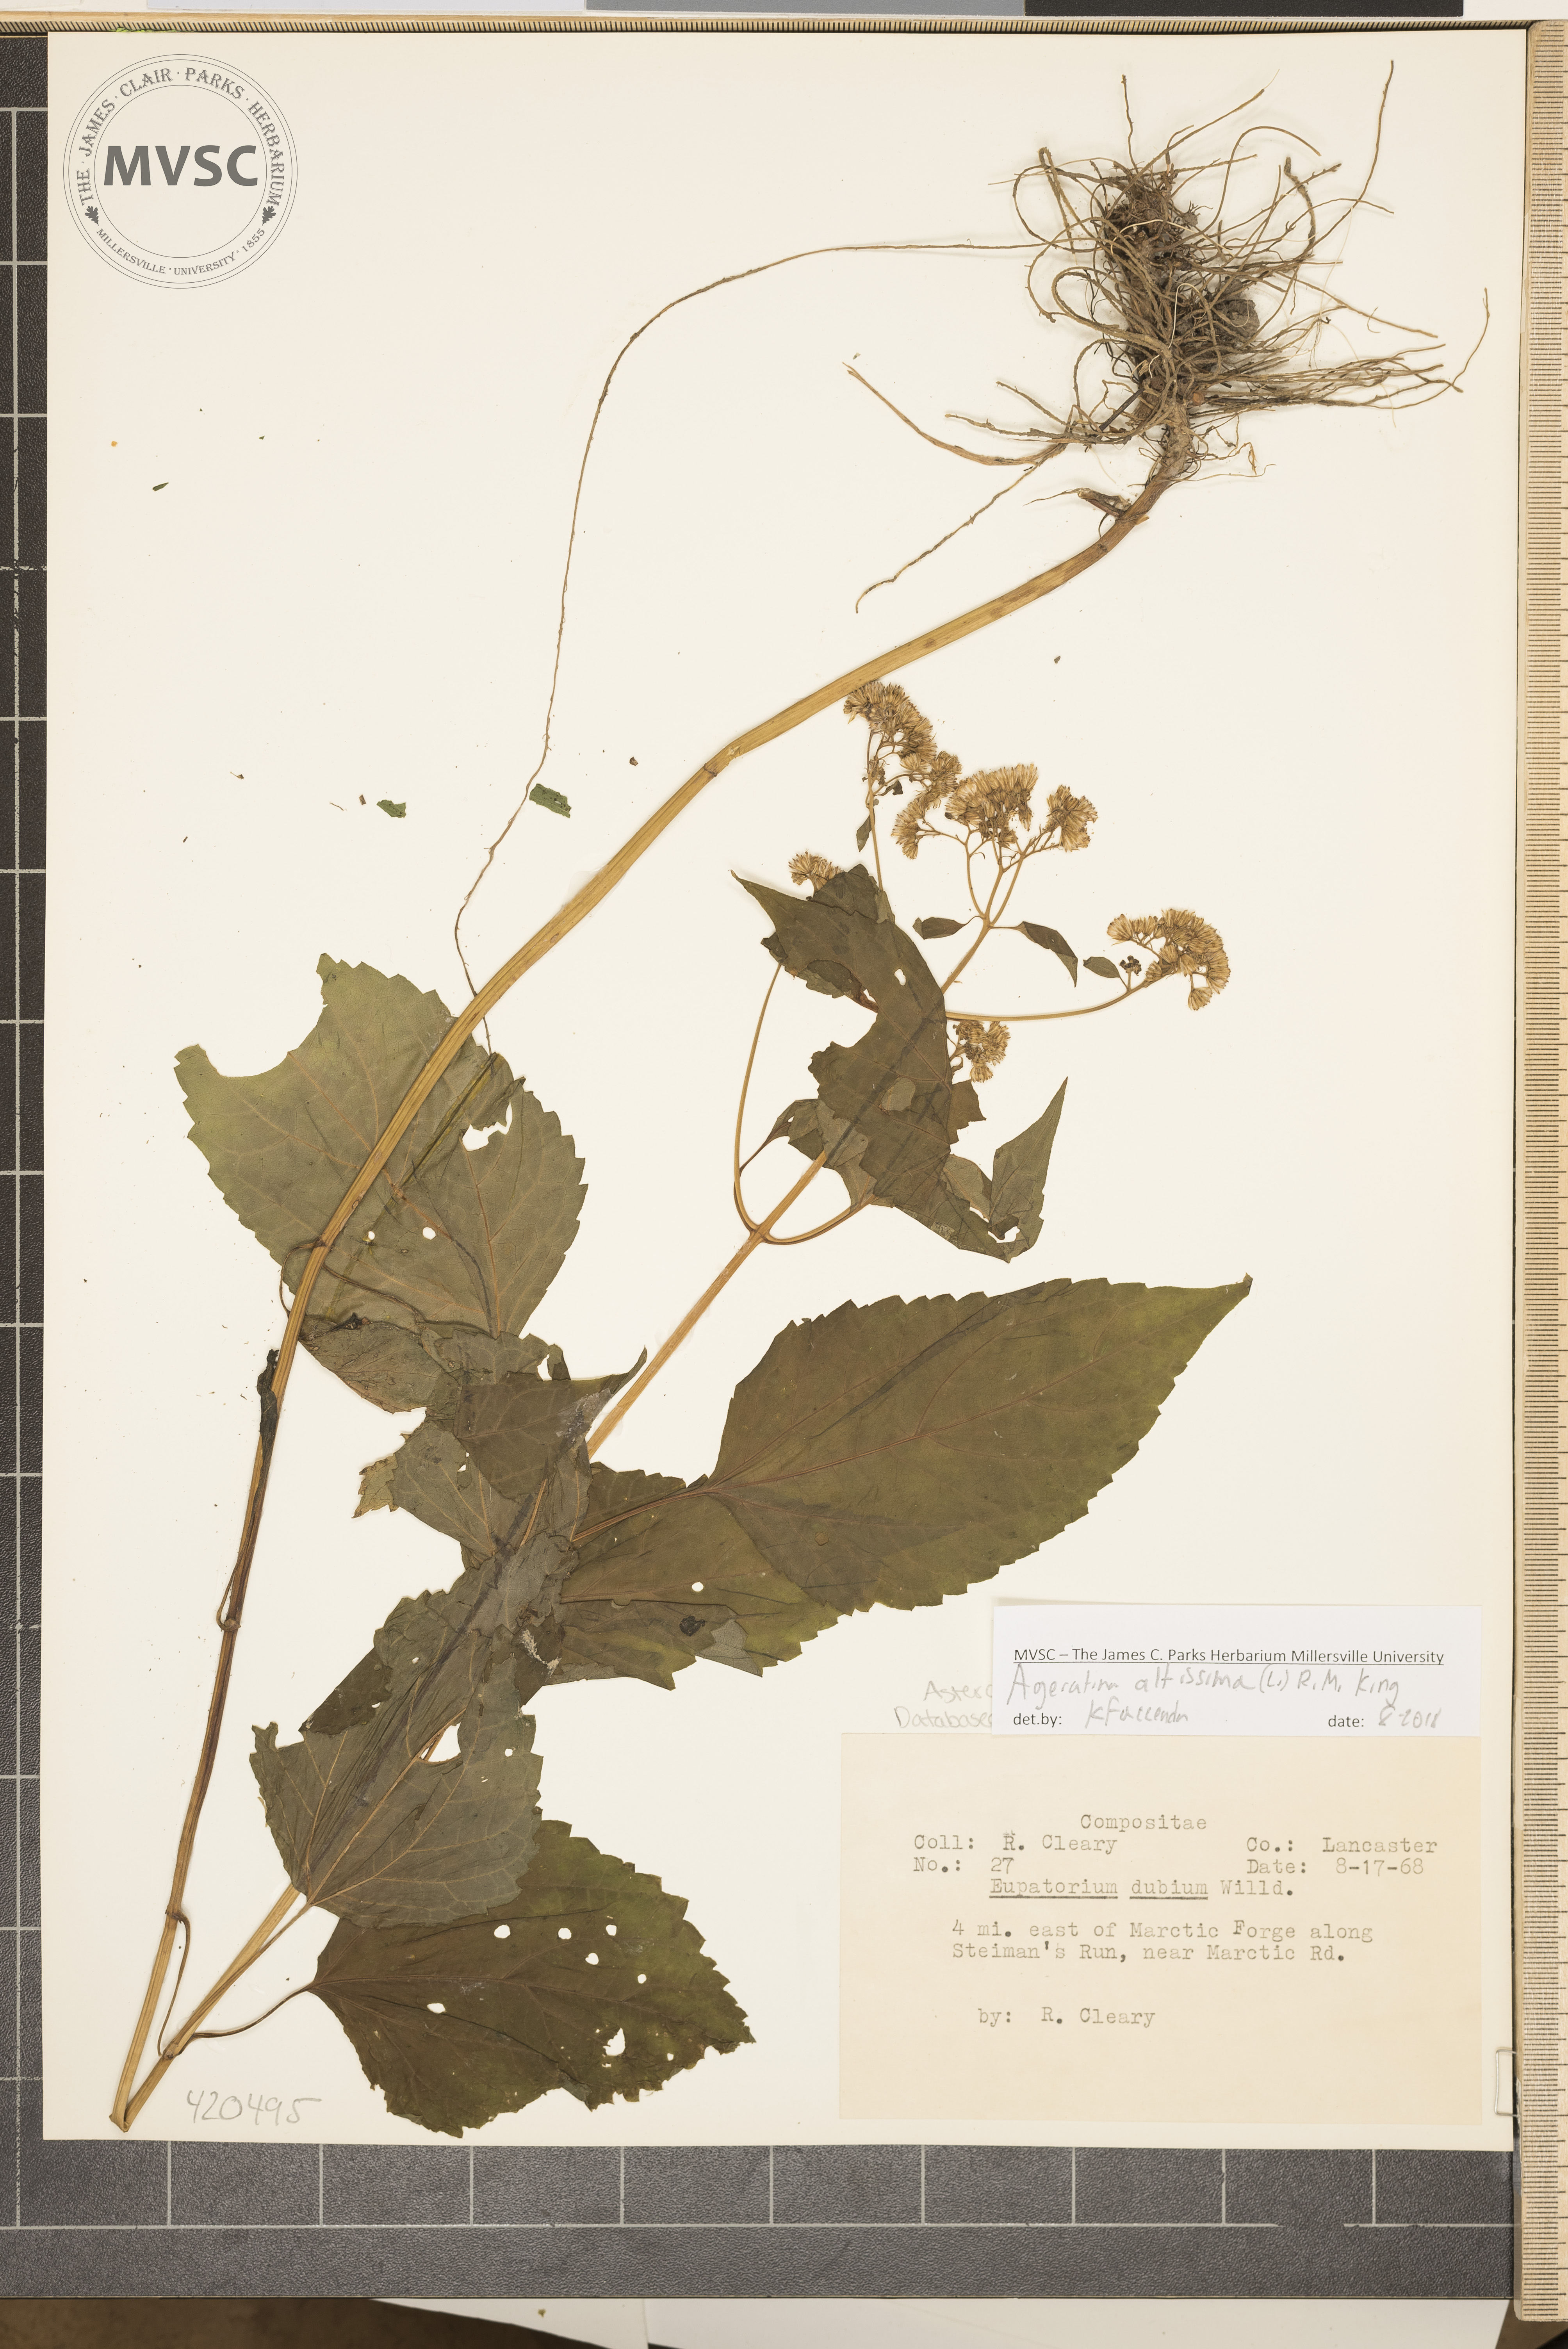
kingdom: Plantae
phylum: Tracheophyta
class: Magnoliopsida
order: Asterales
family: Asteraceae
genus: Ageratina
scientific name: Ageratina altissima
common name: White snakeroot
